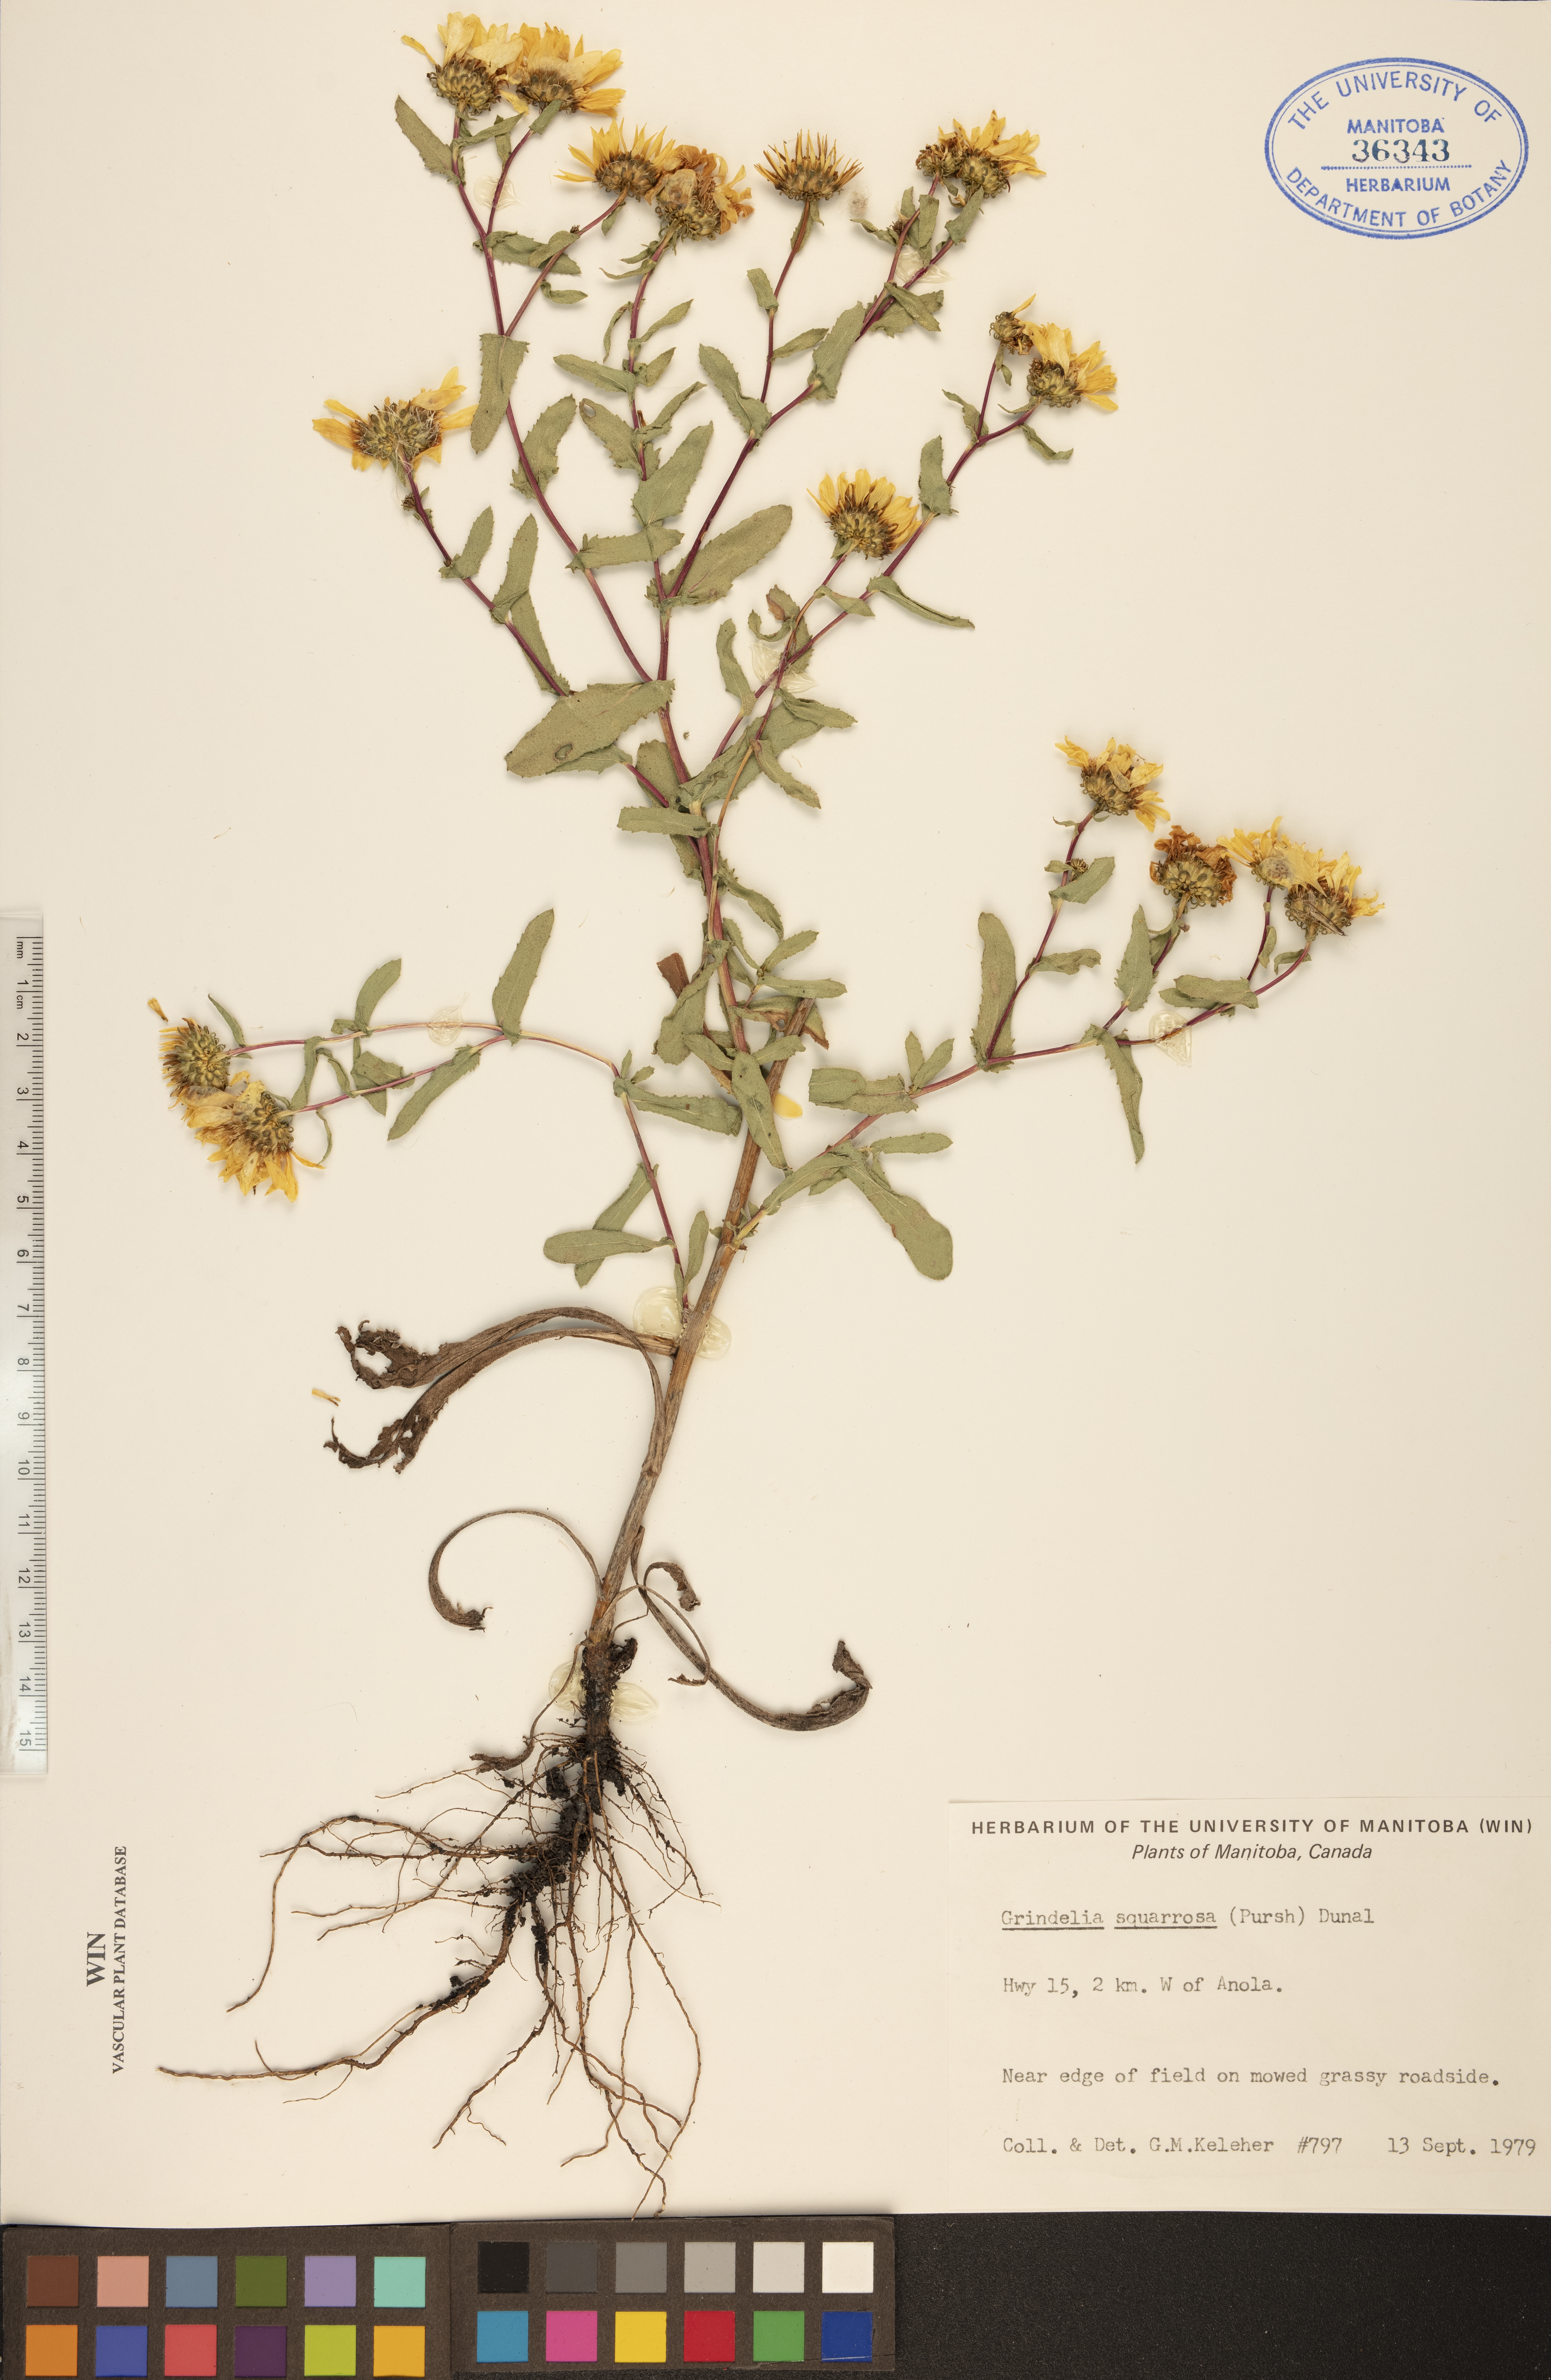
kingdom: Plantae
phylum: Tracheophyta
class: Magnoliopsida
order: Asterales
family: Asteraceae
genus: Grindelia
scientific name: Grindelia squarrosa
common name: Curly-cup gumweed
